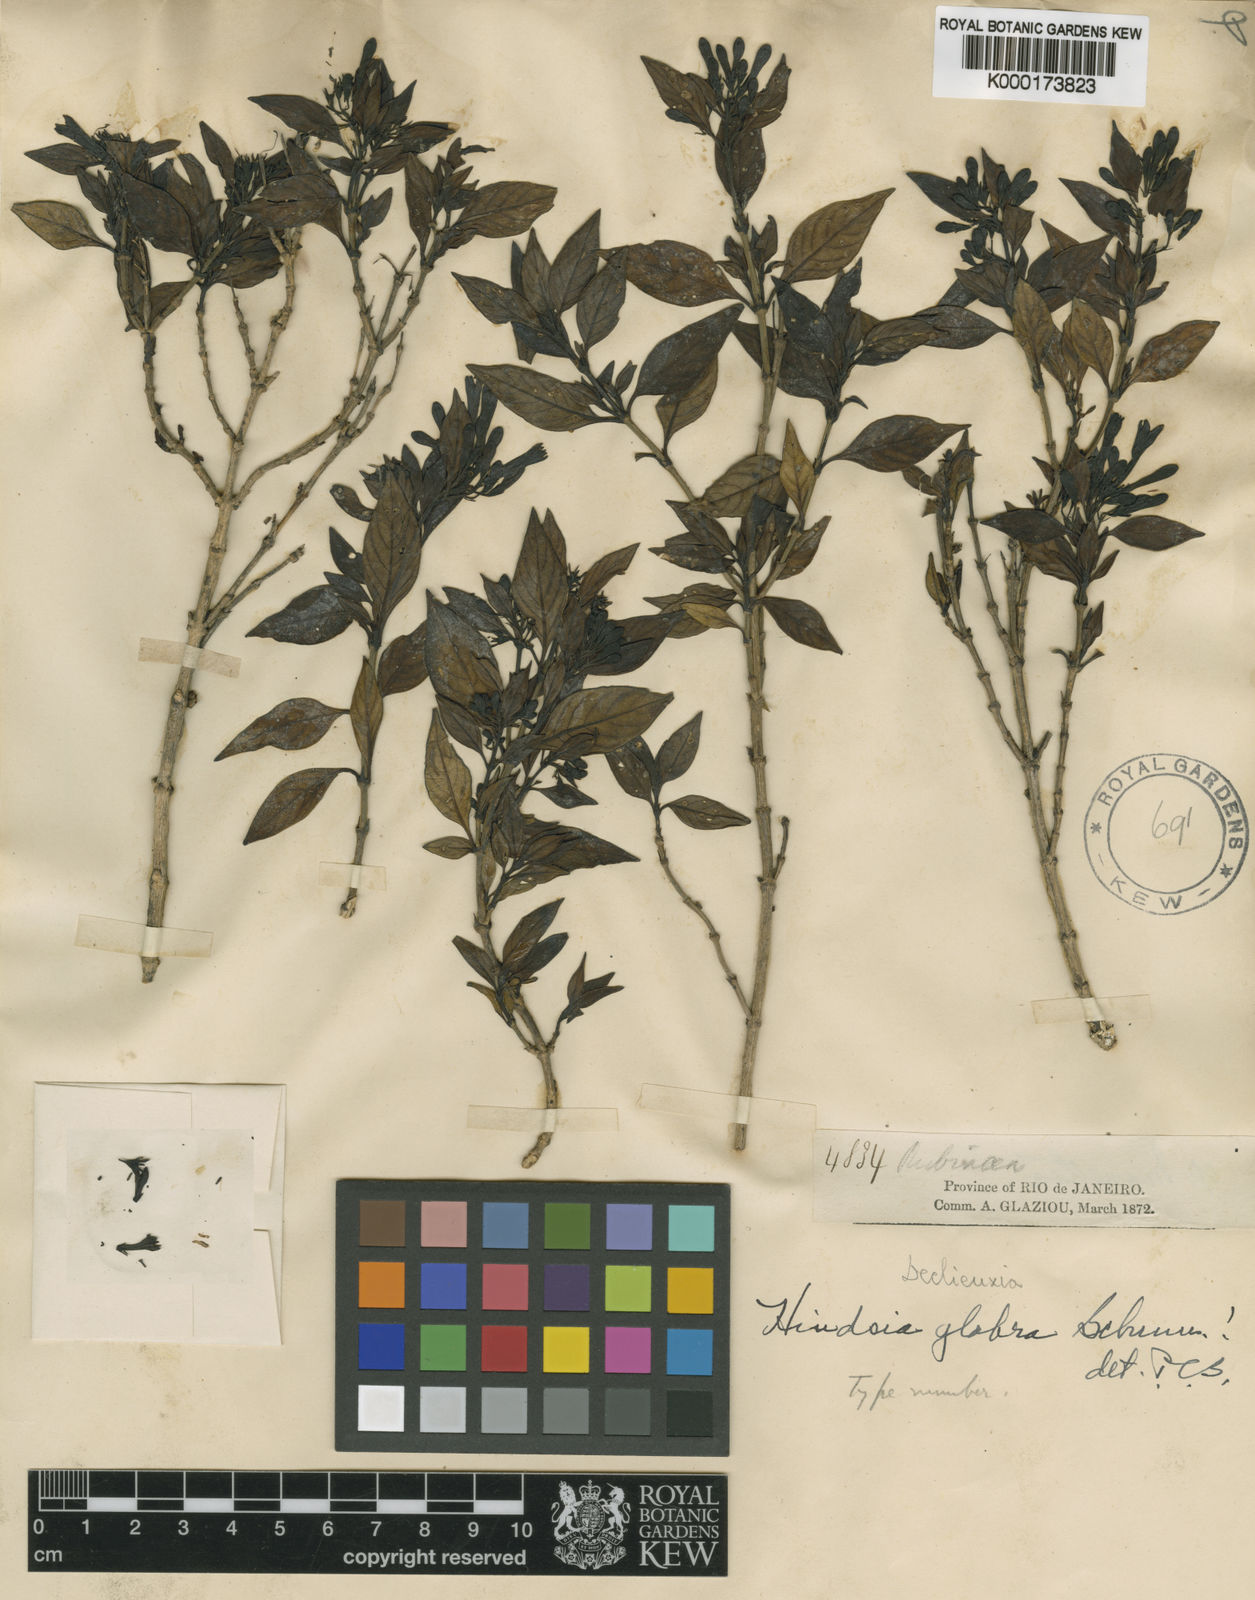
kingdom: Plantae
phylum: Tracheophyta
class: Magnoliopsida
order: Gentianales
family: Rubiaceae
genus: Hindsia
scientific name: Hindsia glabra
